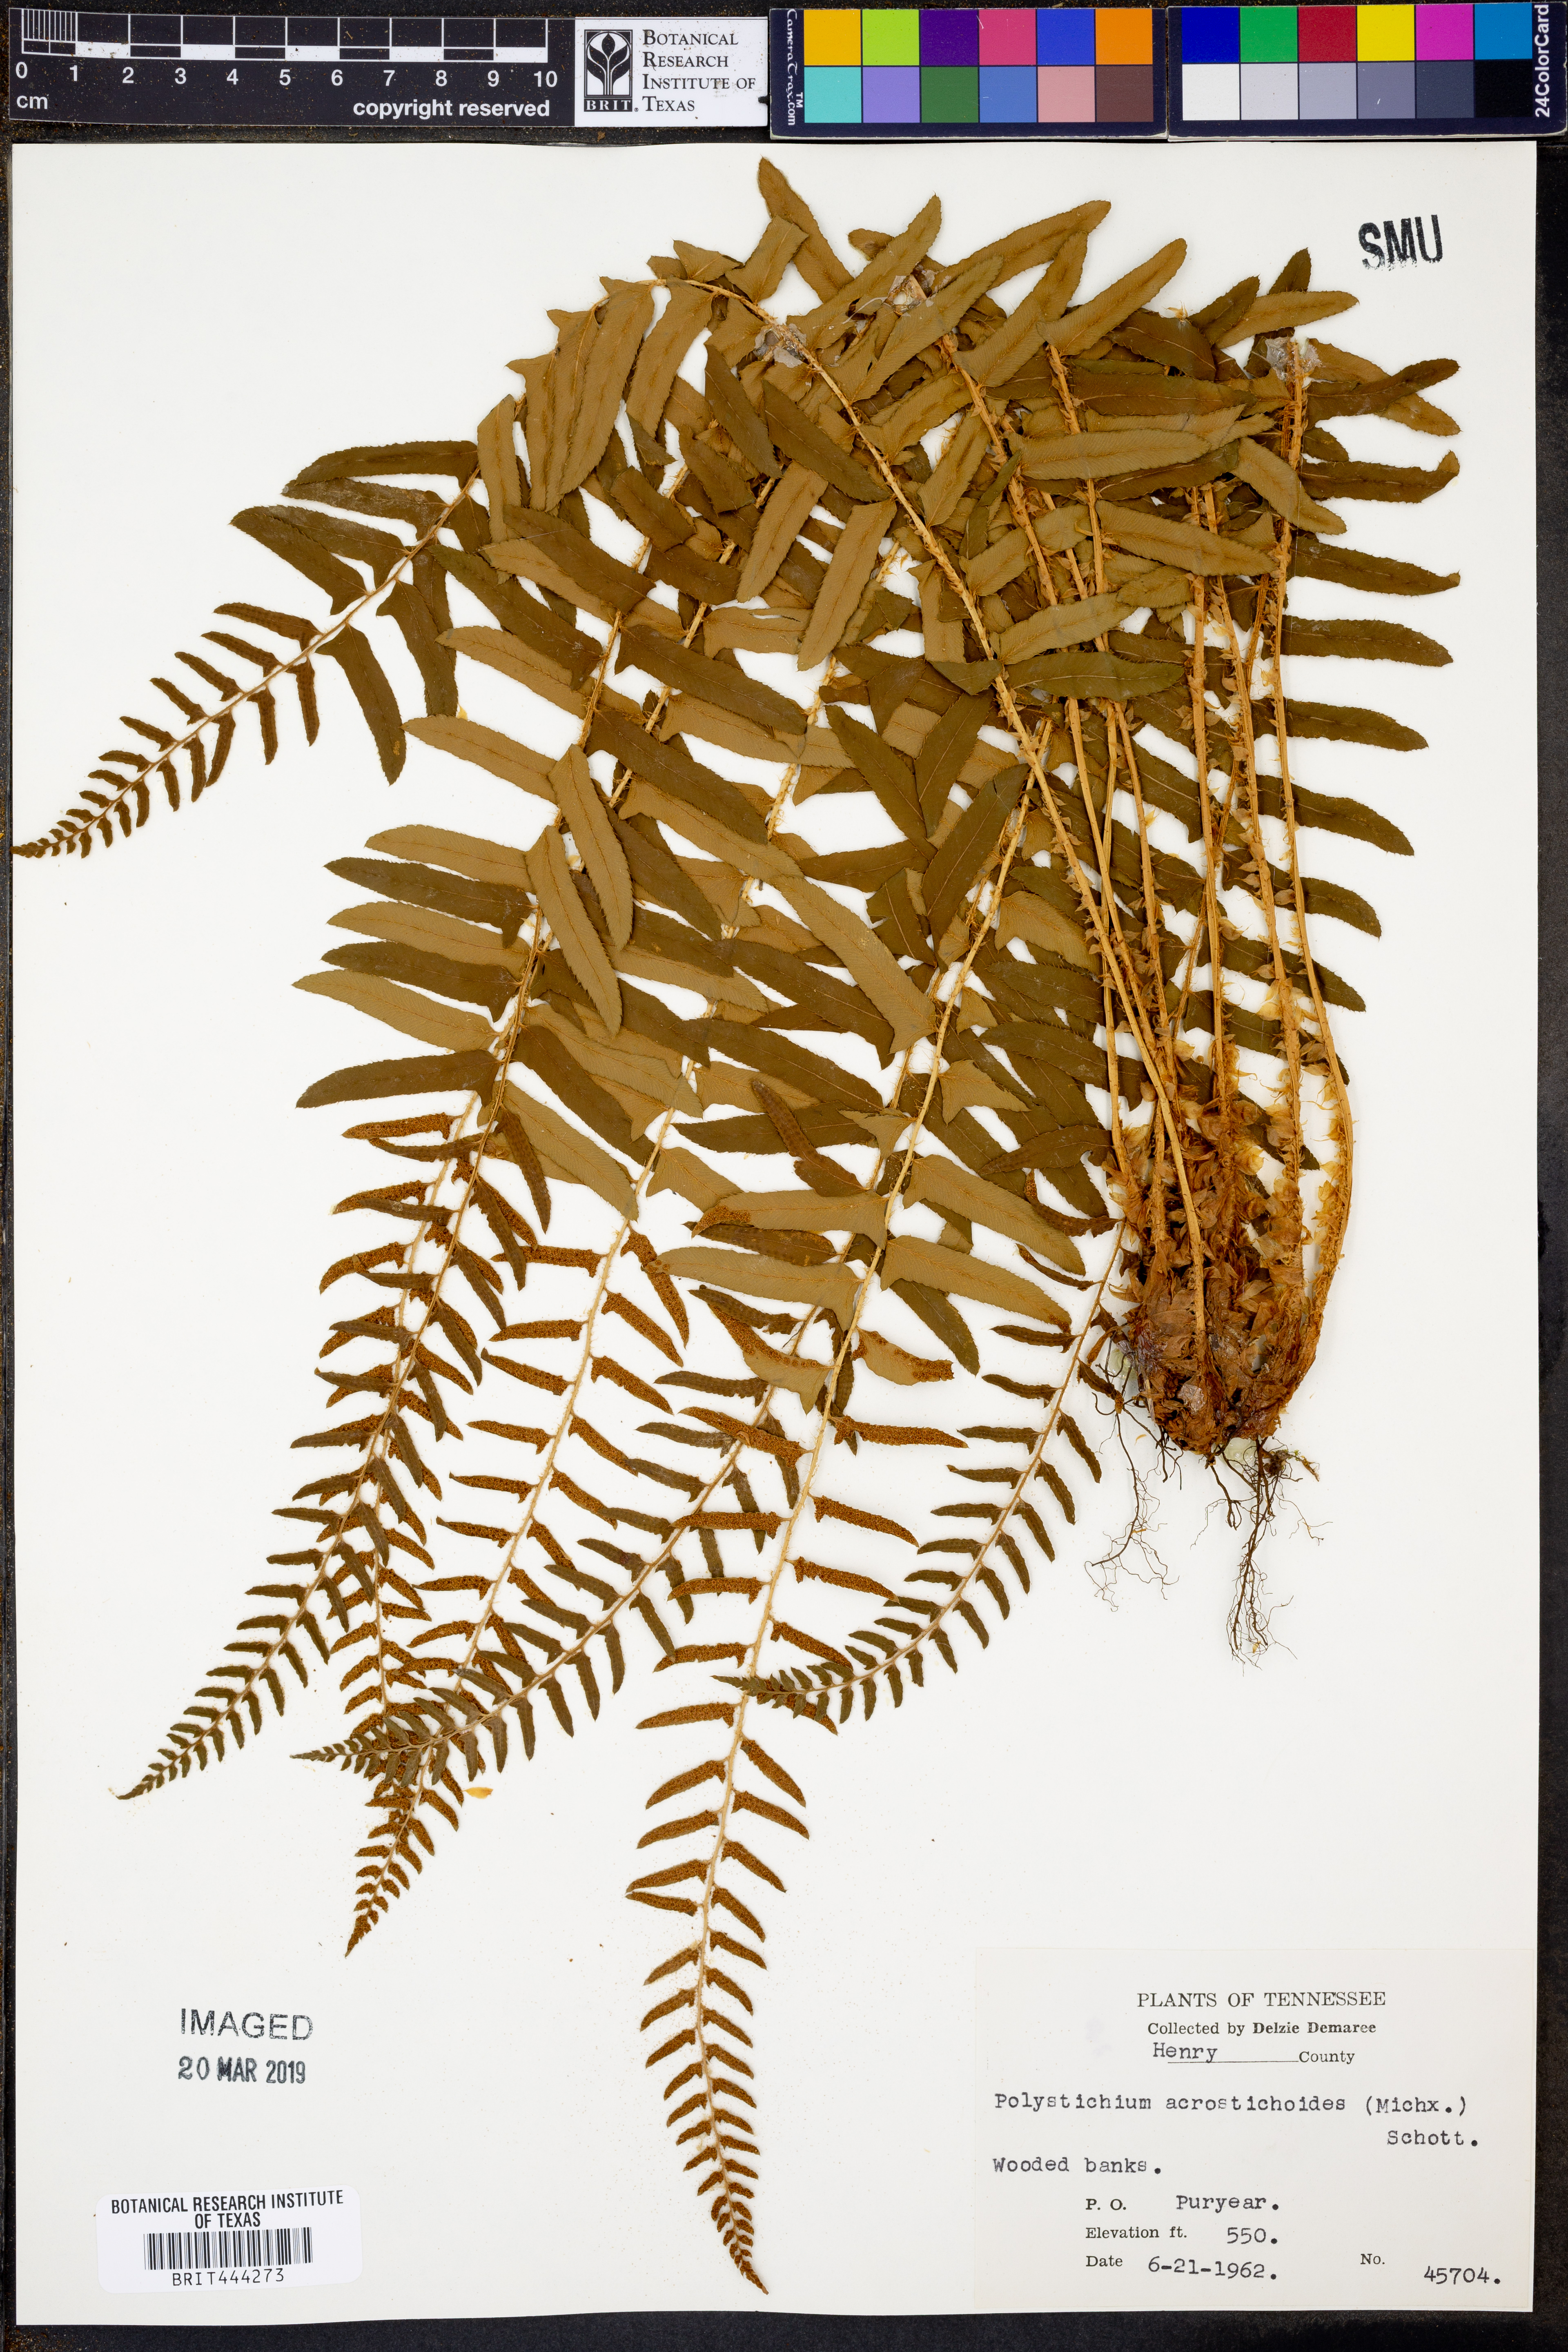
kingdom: Plantae
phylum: Tracheophyta
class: Polypodiopsida
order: Polypodiales
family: Dryopteridaceae
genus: Polystichum
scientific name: Polystichum acrostichoides
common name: Christmas fern
